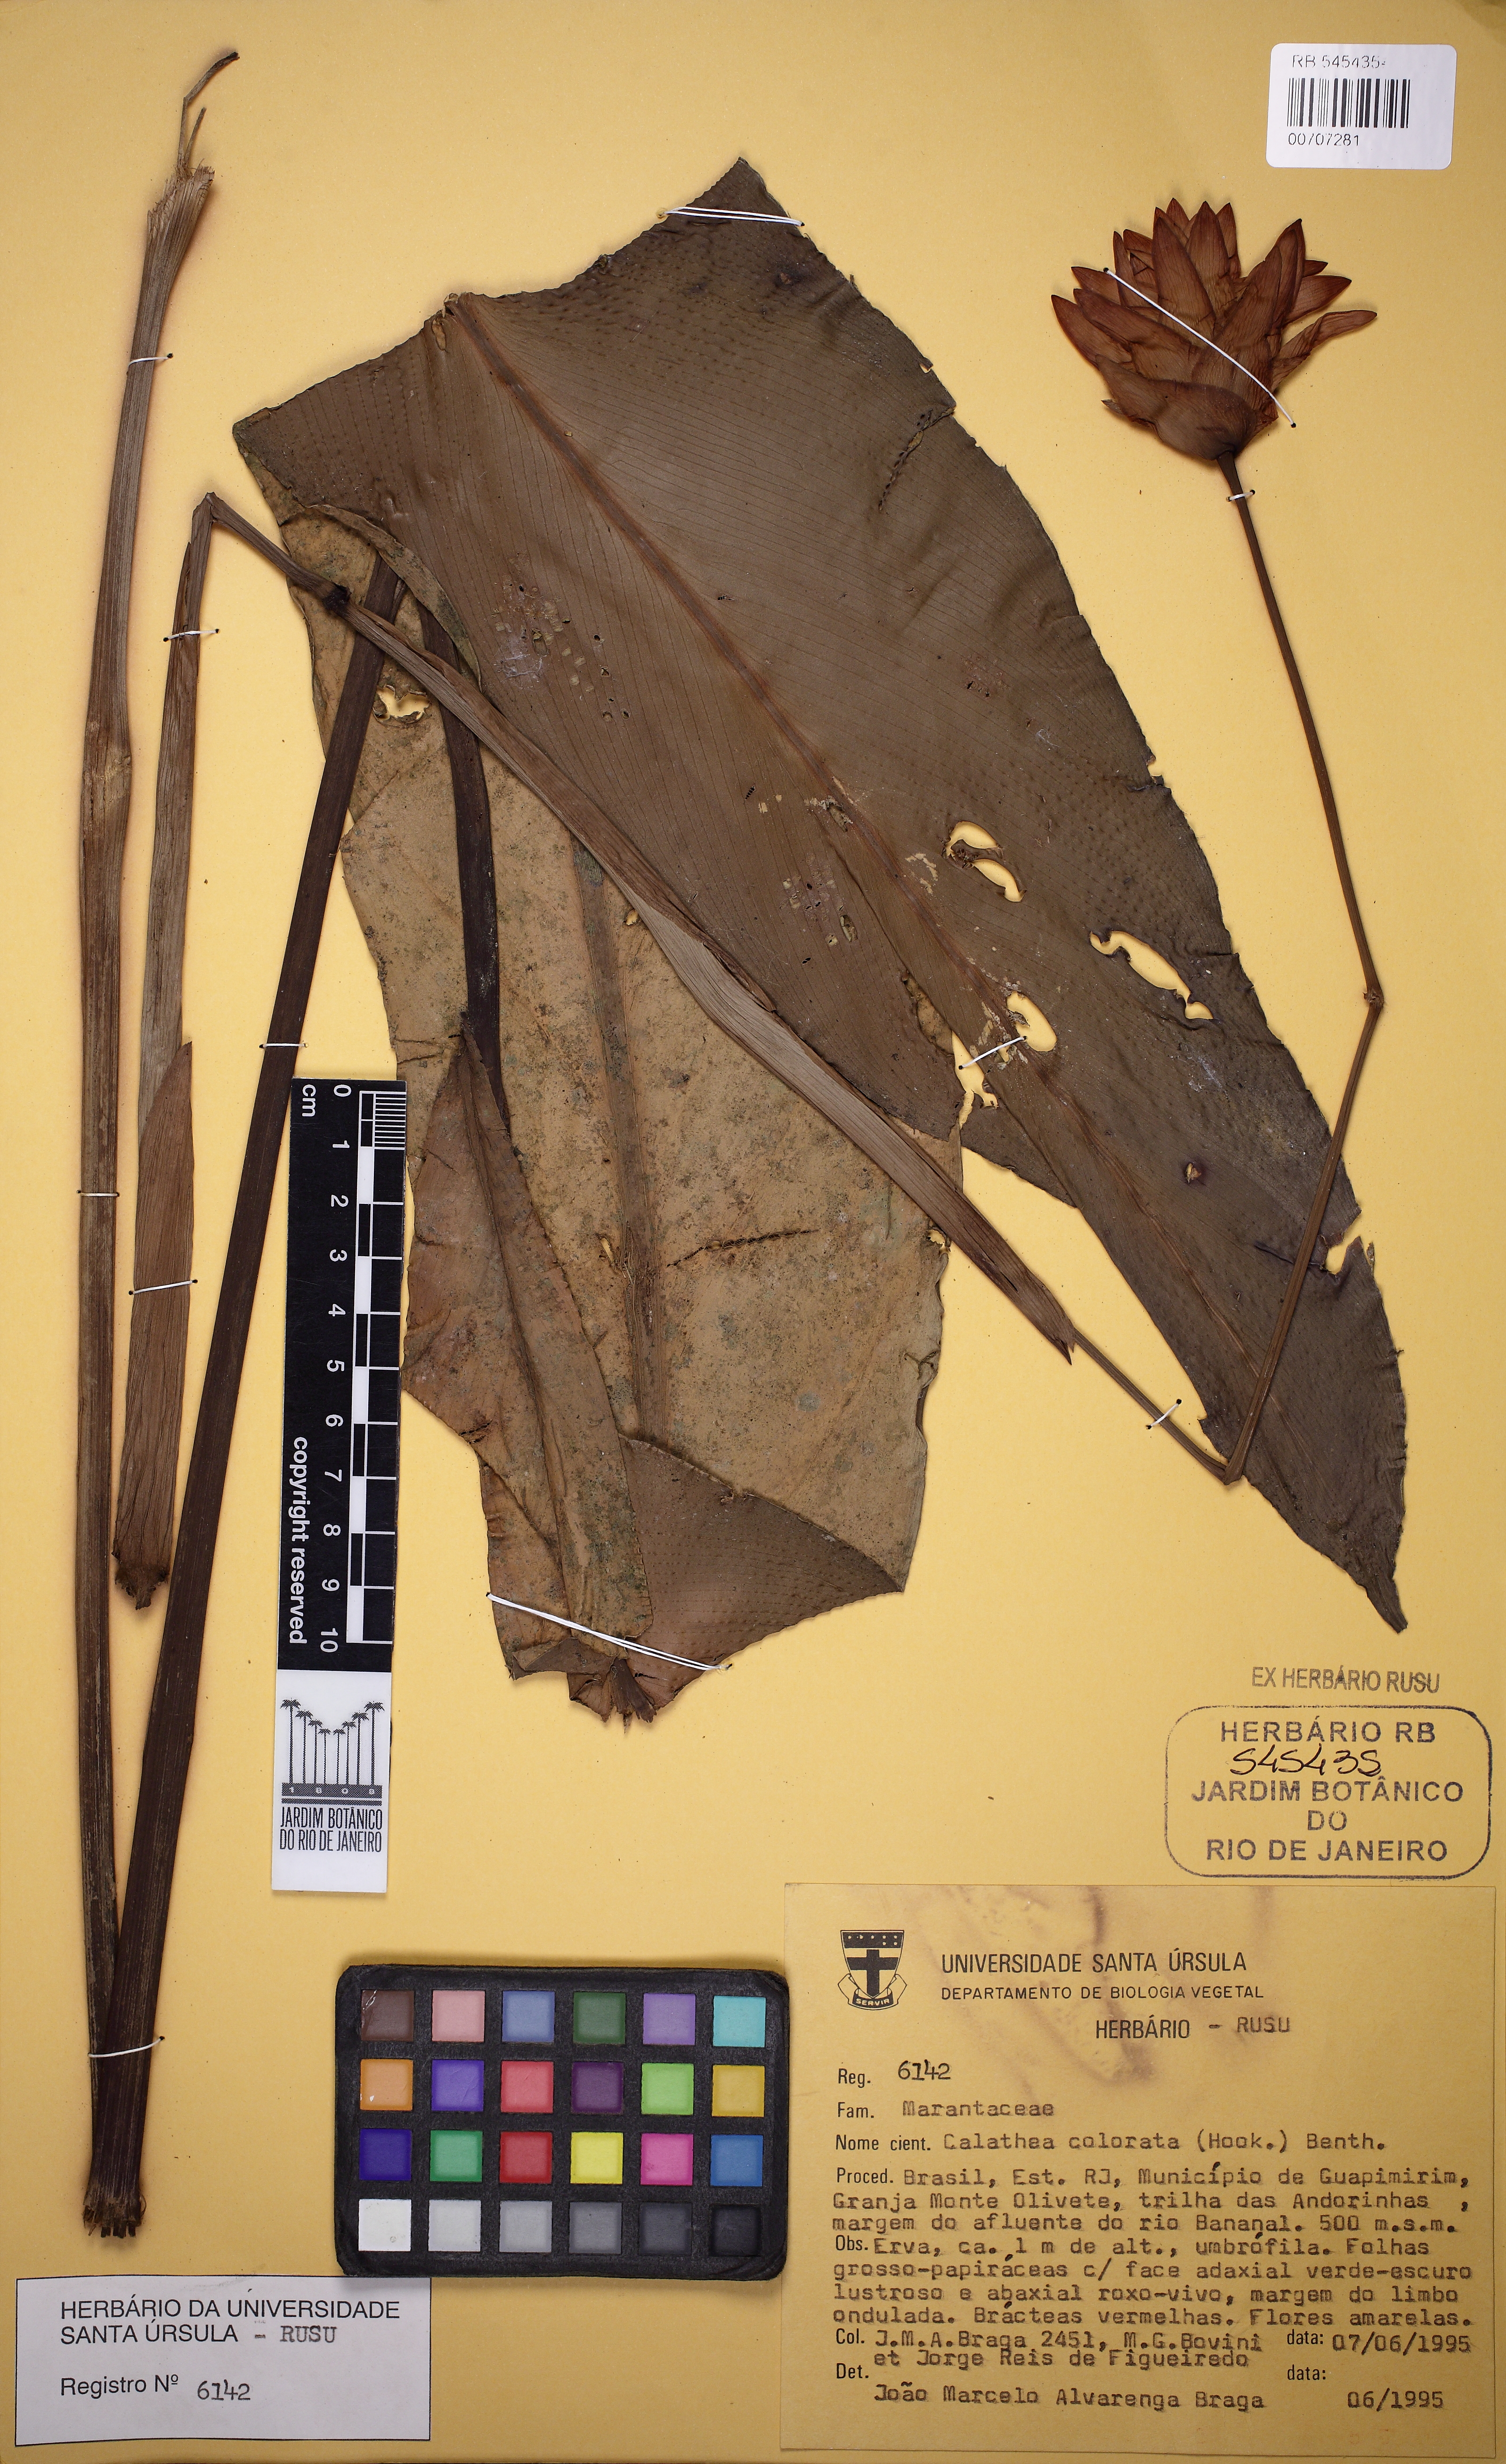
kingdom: Plantae
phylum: Tracheophyta
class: Liliopsida
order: Zingiberales
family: Marantaceae
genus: Goeppertia
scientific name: Goeppertia colorata
